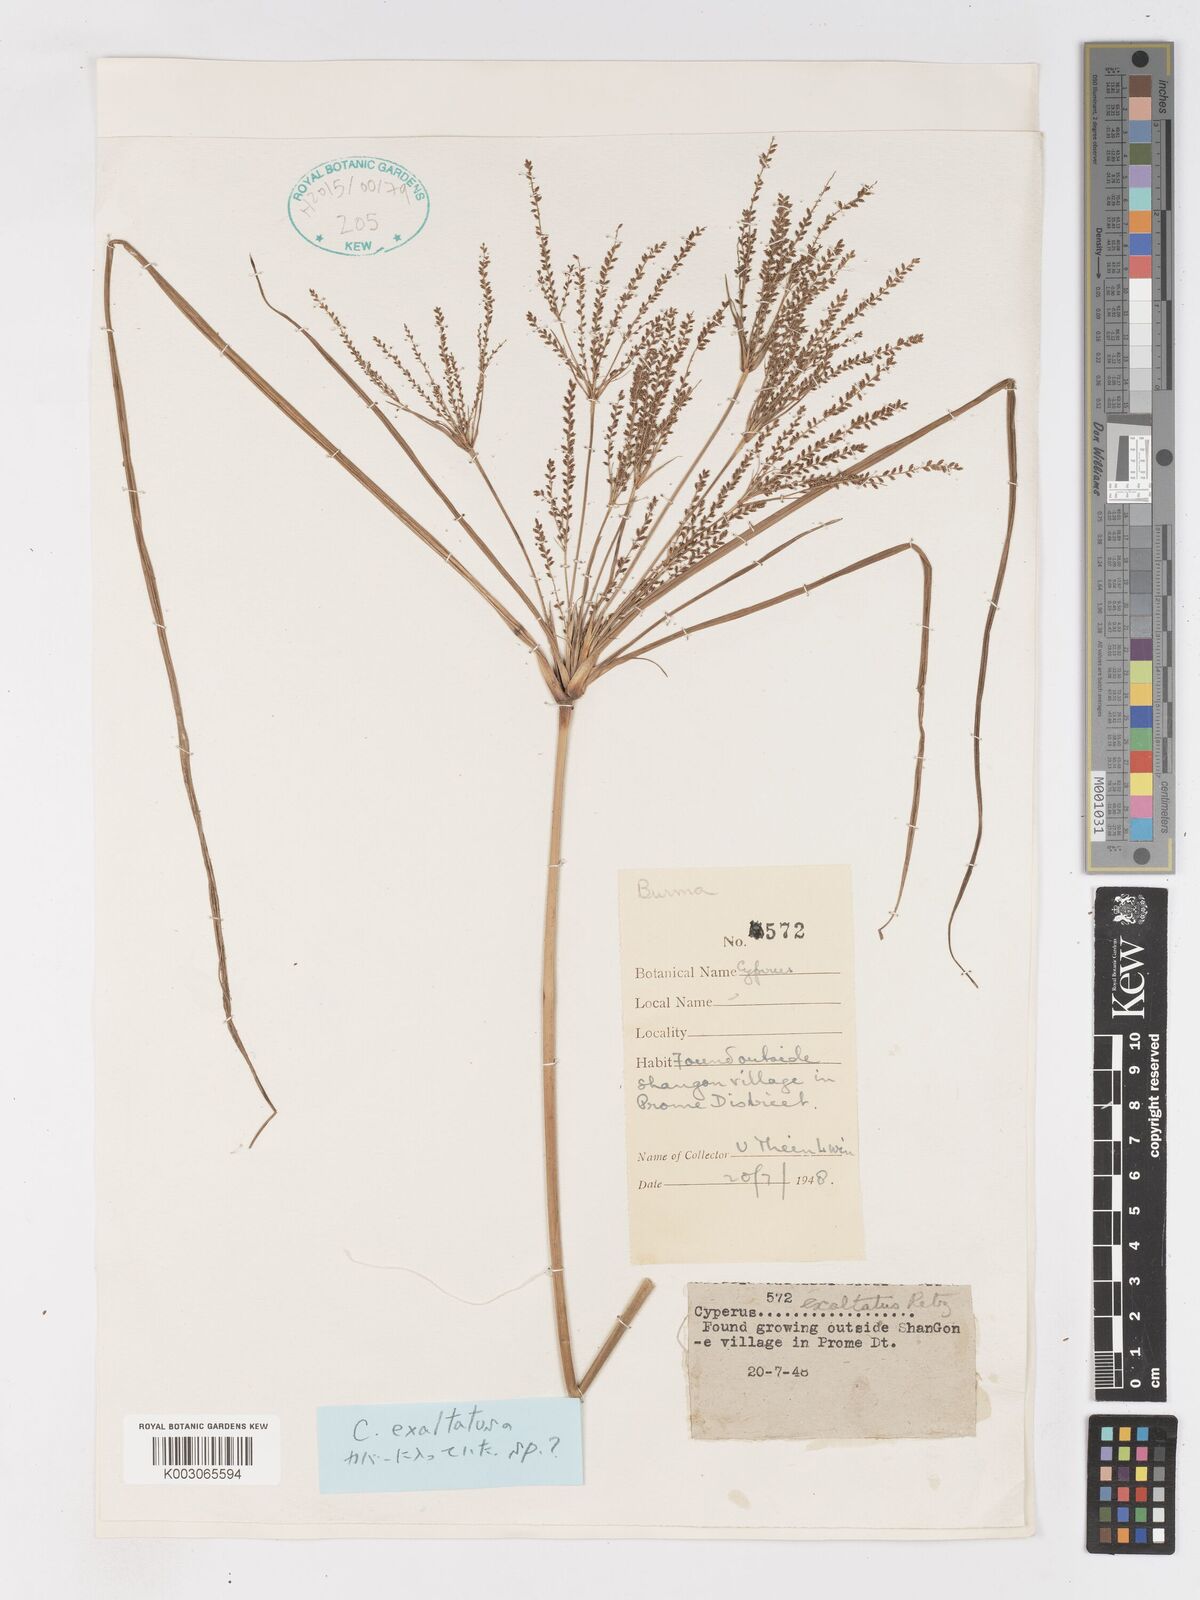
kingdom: Plantae
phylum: Tracheophyta
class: Liliopsida
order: Poales
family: Cyperaceae
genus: Cyperus
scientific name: Cyperus exaltatus
